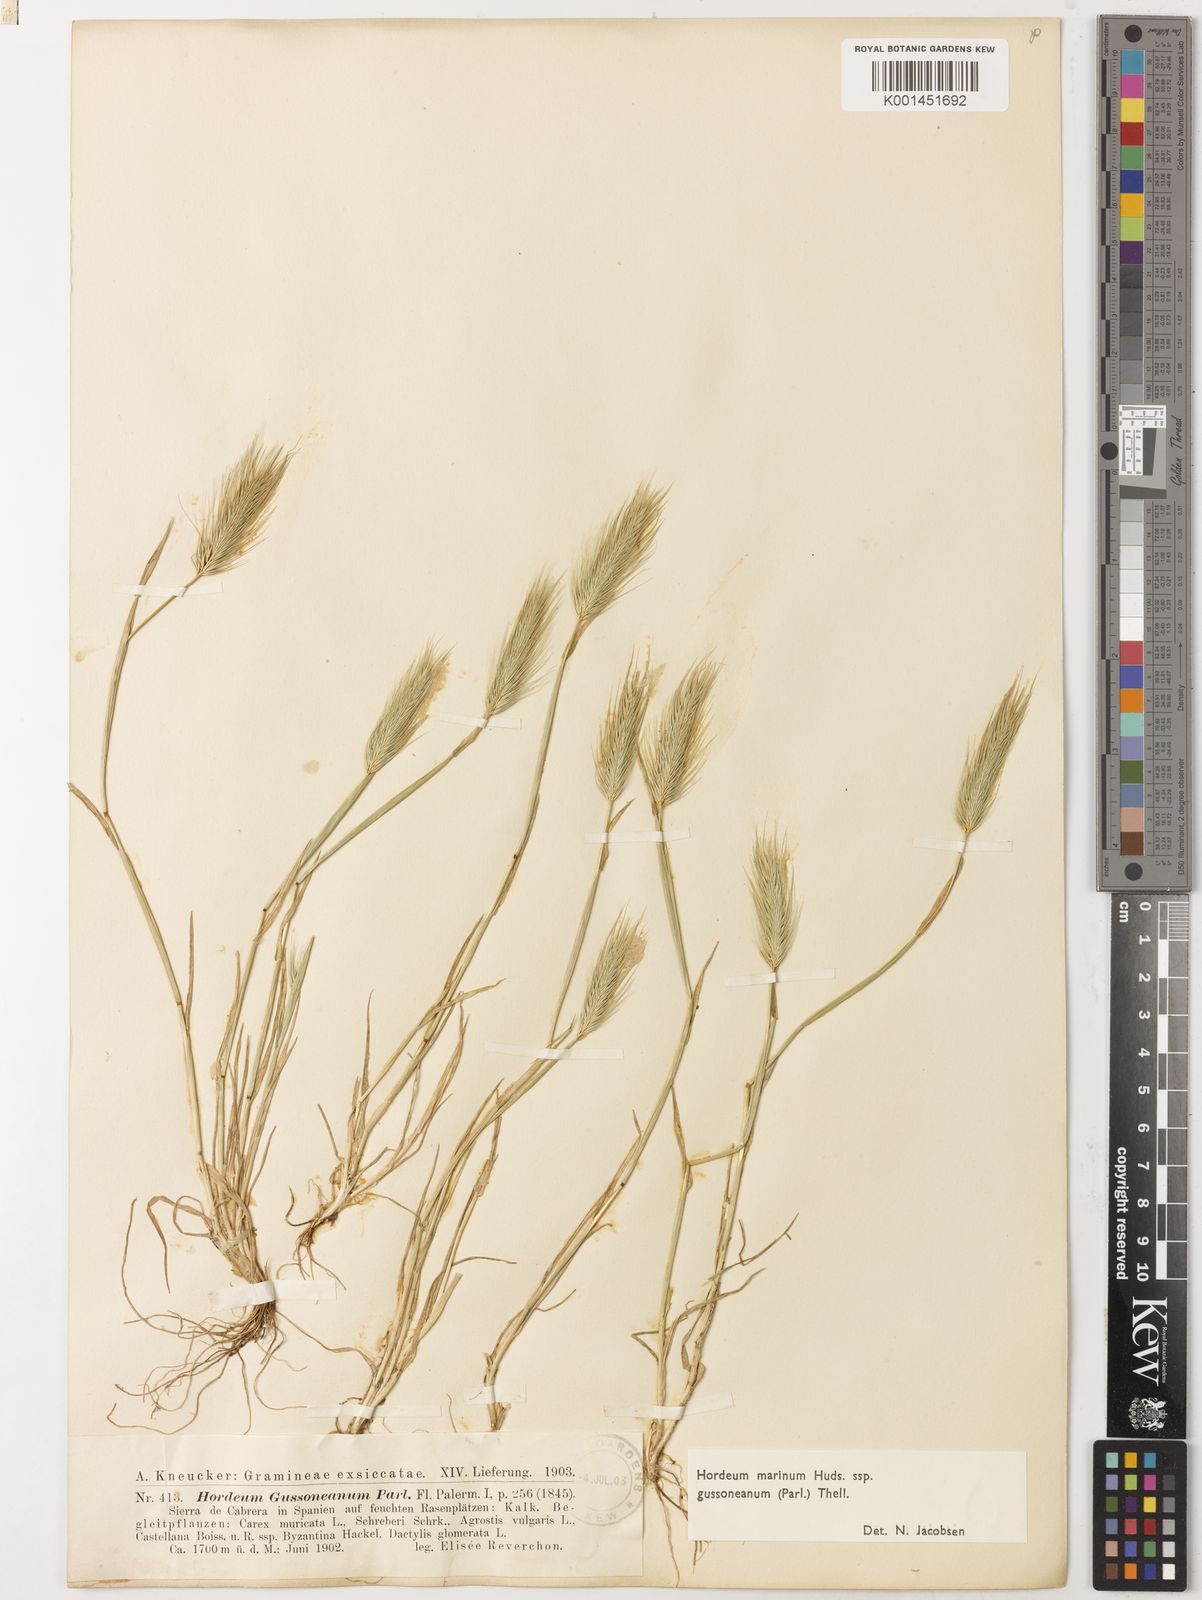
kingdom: Plantae
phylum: Tracheophyta
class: Liliopsida
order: Poales
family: Poaceae
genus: Hordeum
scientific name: Hordeum marinum
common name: Sea barley
